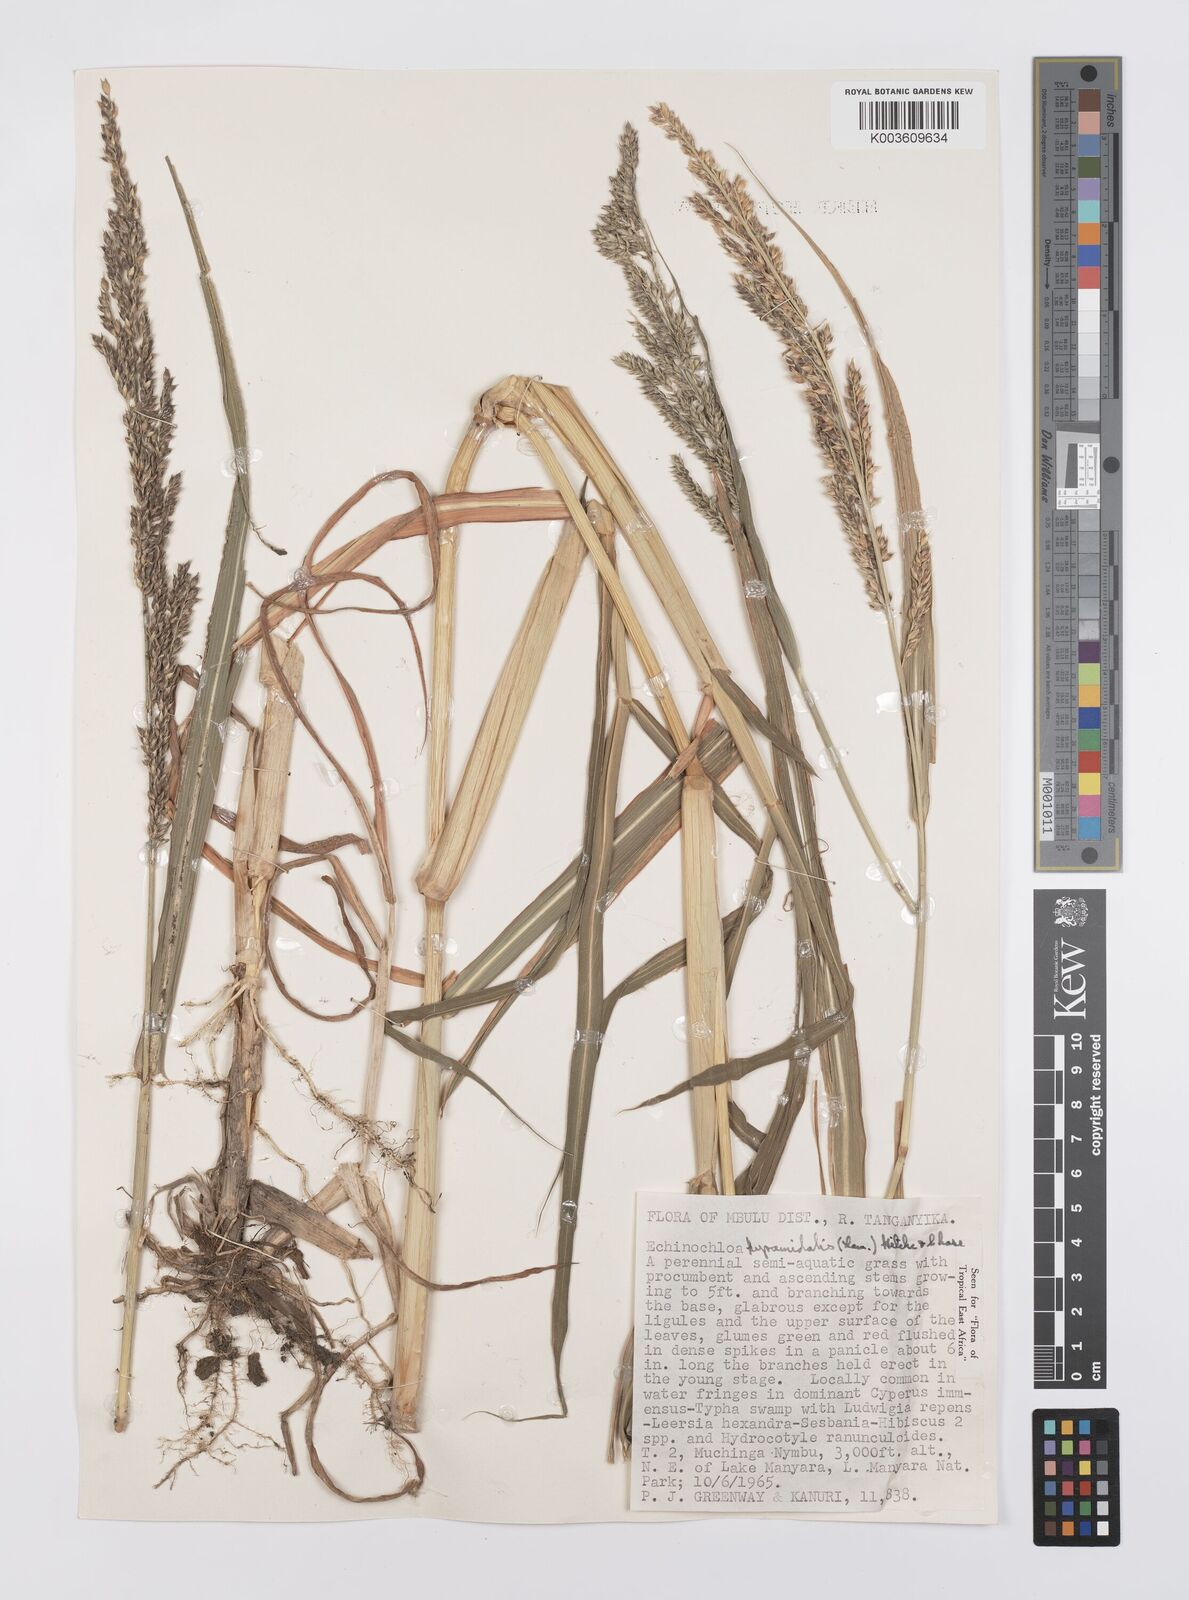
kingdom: Plantae
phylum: Tracheophyta
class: Liliopsida
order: Poales
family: Poaceae
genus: Echinochloa
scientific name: Echinochloa pyramidalis
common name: Antelope grass
